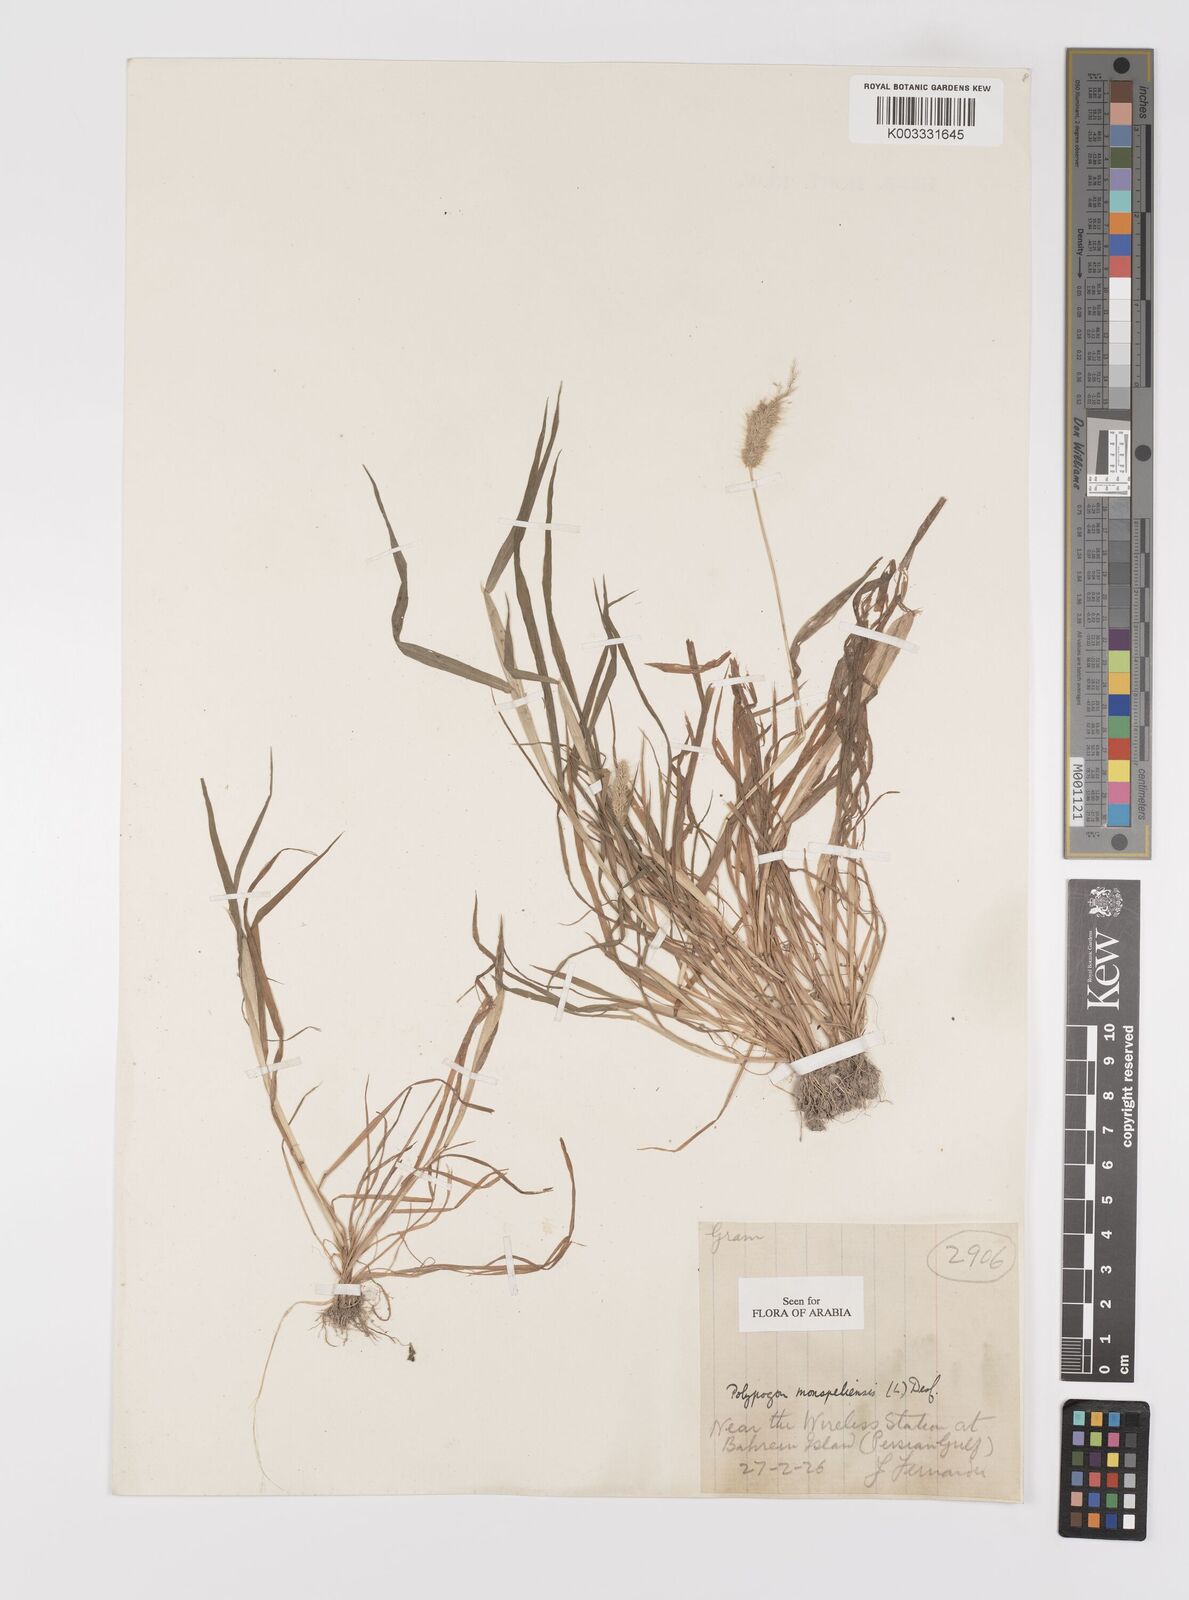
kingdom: Plantae
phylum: Tracheophyta
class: Liliopsida
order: Poales
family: Poaceae
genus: Polypogon
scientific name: Polypogon monspeliensis
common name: Annual rabbitsfoot grass
